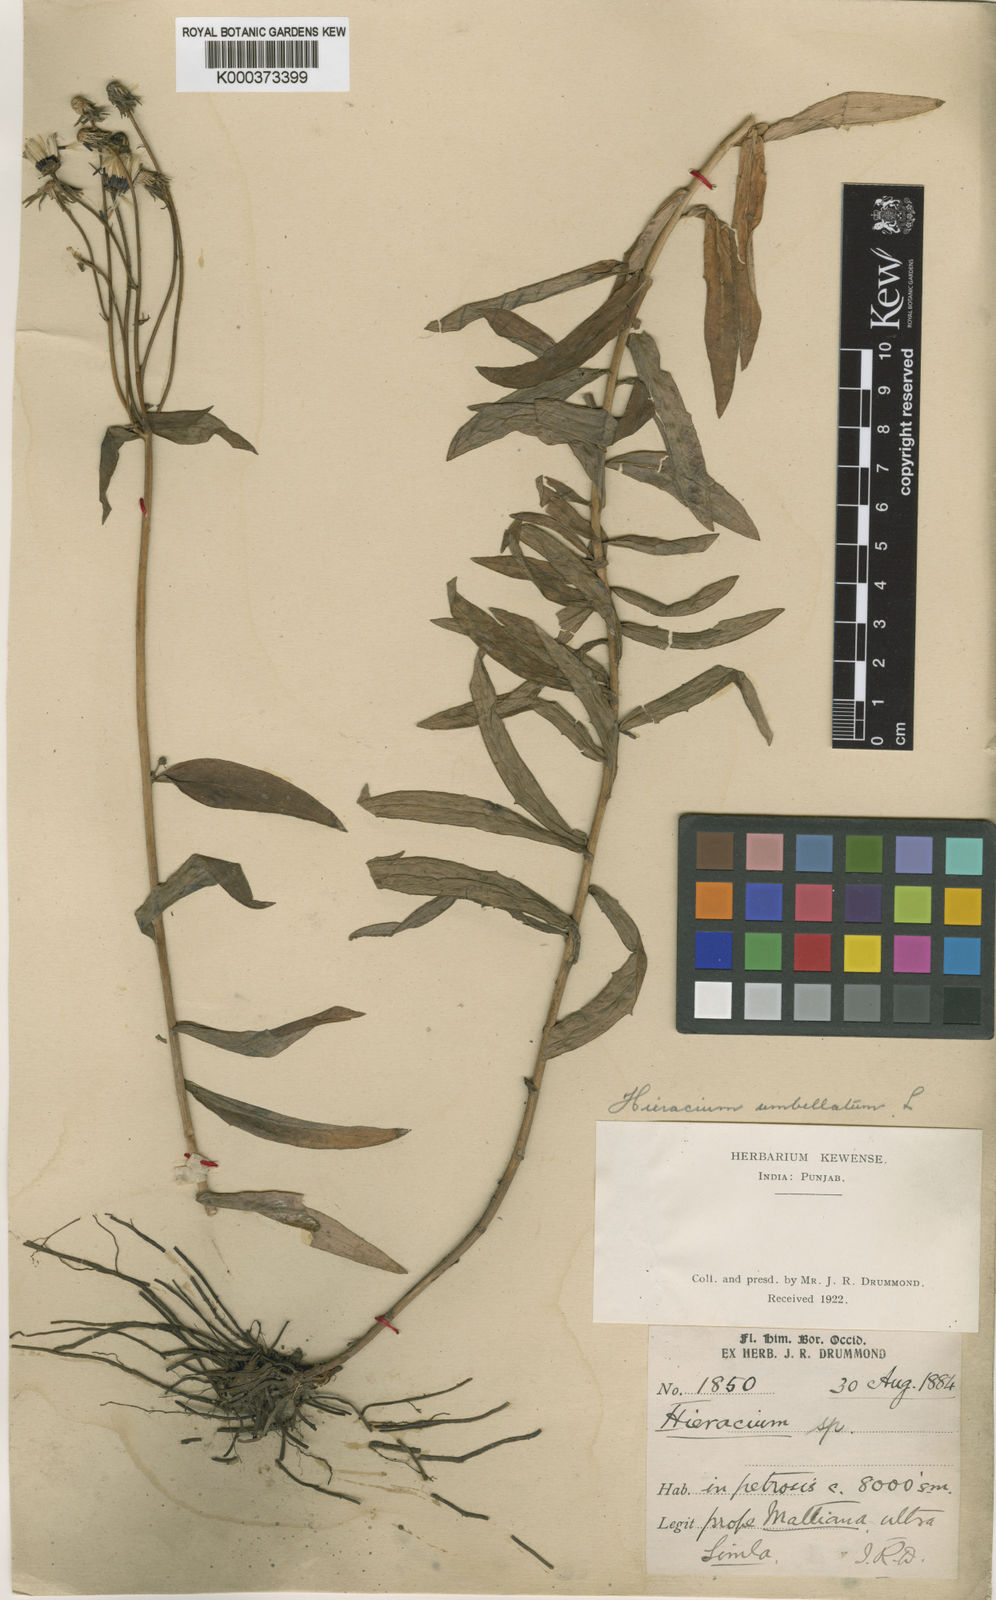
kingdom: Plantae
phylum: Tracheophyta
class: Magnoliopsida
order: Asterales
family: Asteraceae
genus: Hieracium
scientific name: Hieracium umbellatum
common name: Northern hawkweed
